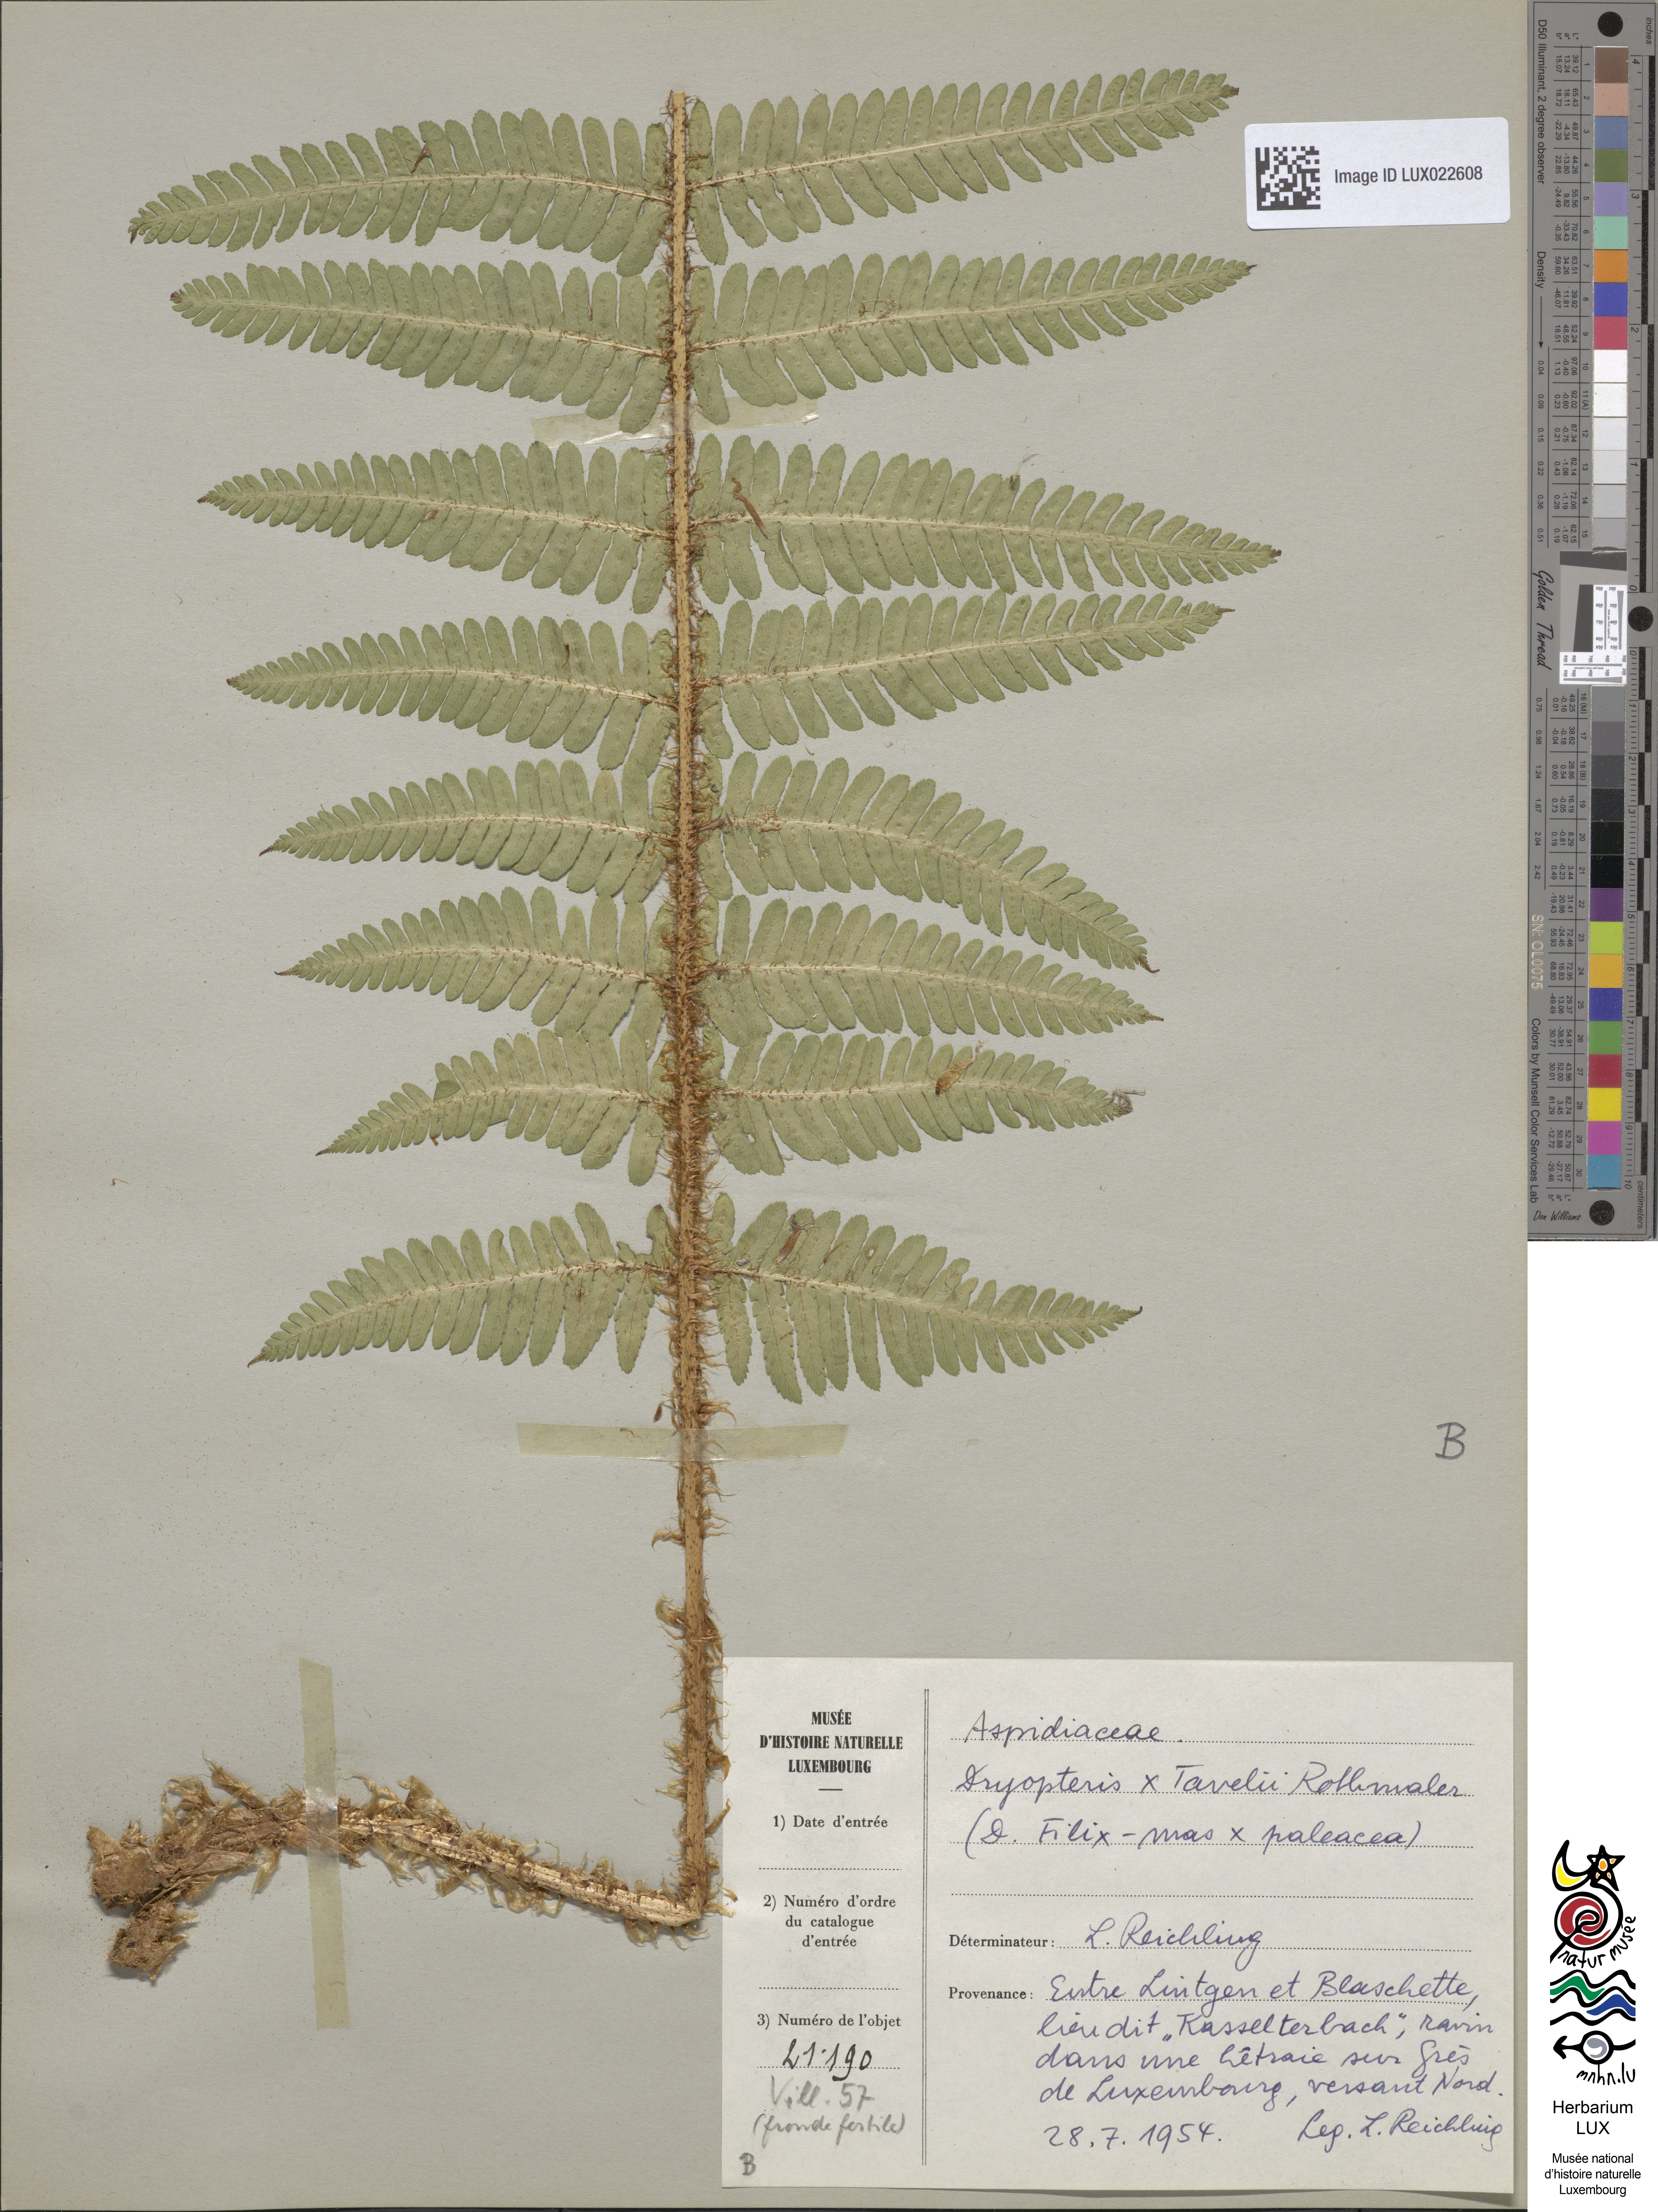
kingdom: Plantae
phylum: Tracheophyta
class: Polypodiopsida
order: Polypodiales
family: Dryopteridaceae
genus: Dryopteris
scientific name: Dryopteris borreri
